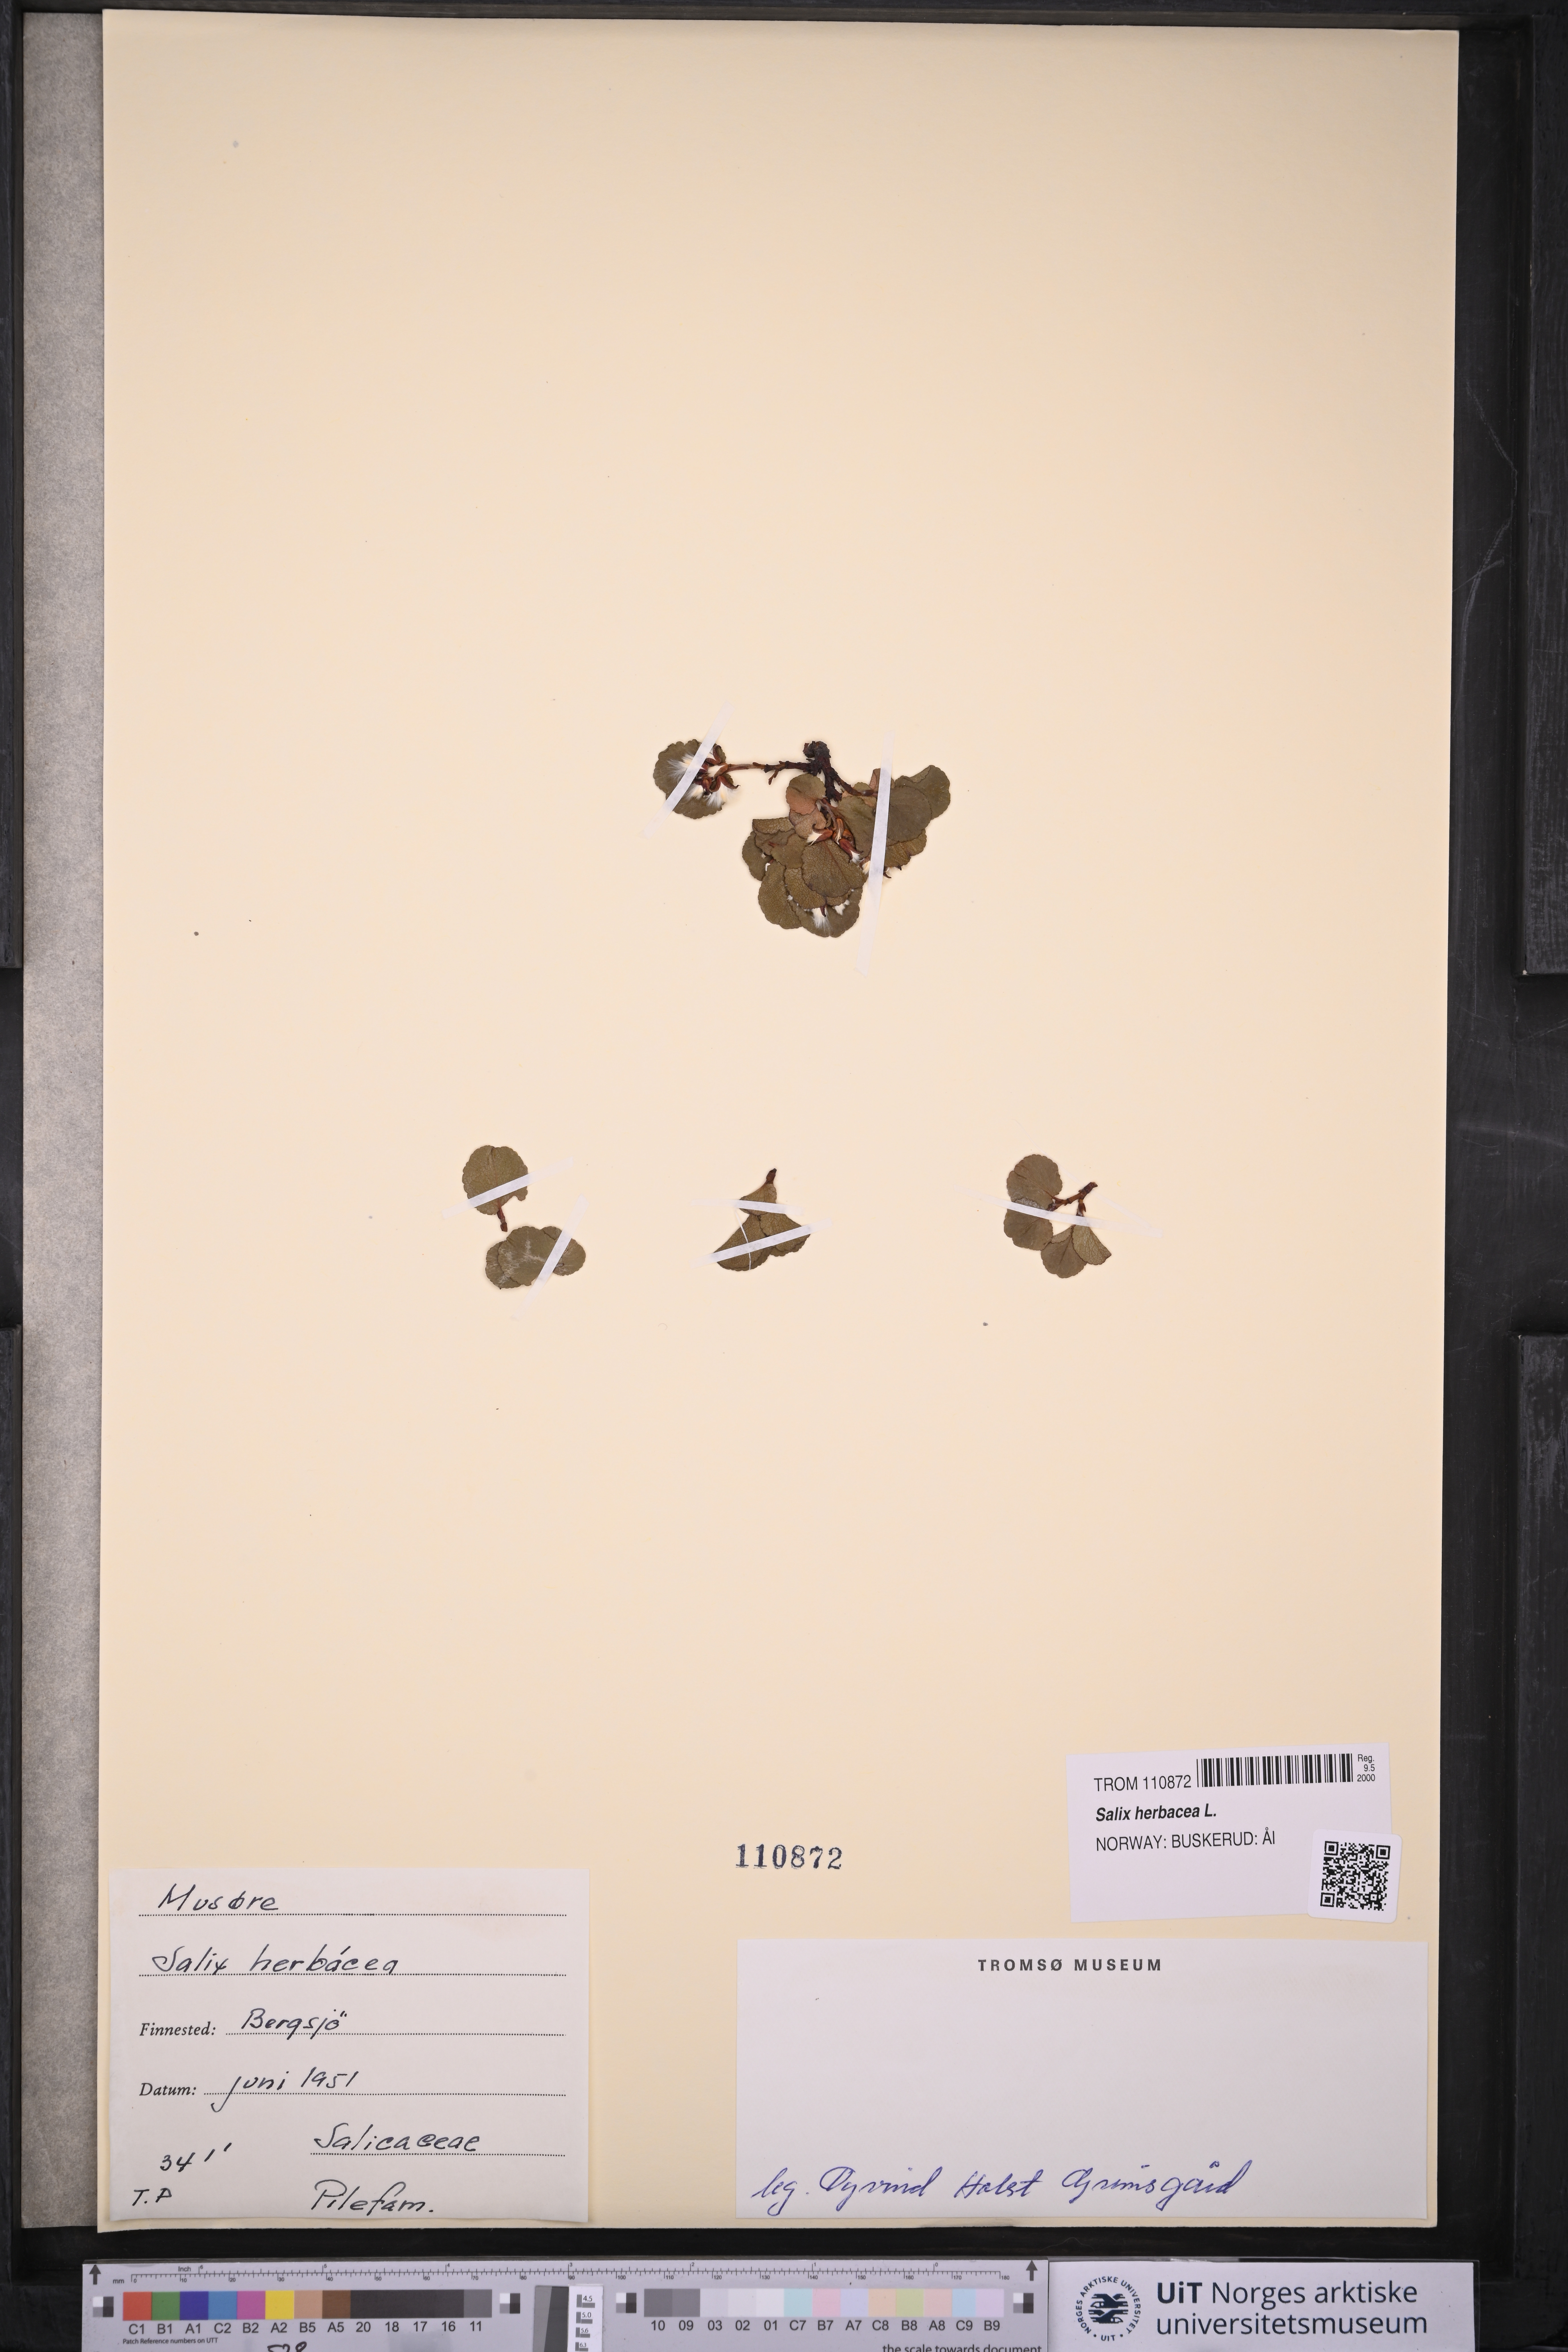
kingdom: Plantae
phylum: Tracheophyta
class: Magnoliopsida
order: Malpighiales
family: Salicaceae
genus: Salix
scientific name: Salix herbacea
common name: Dwarf willow
